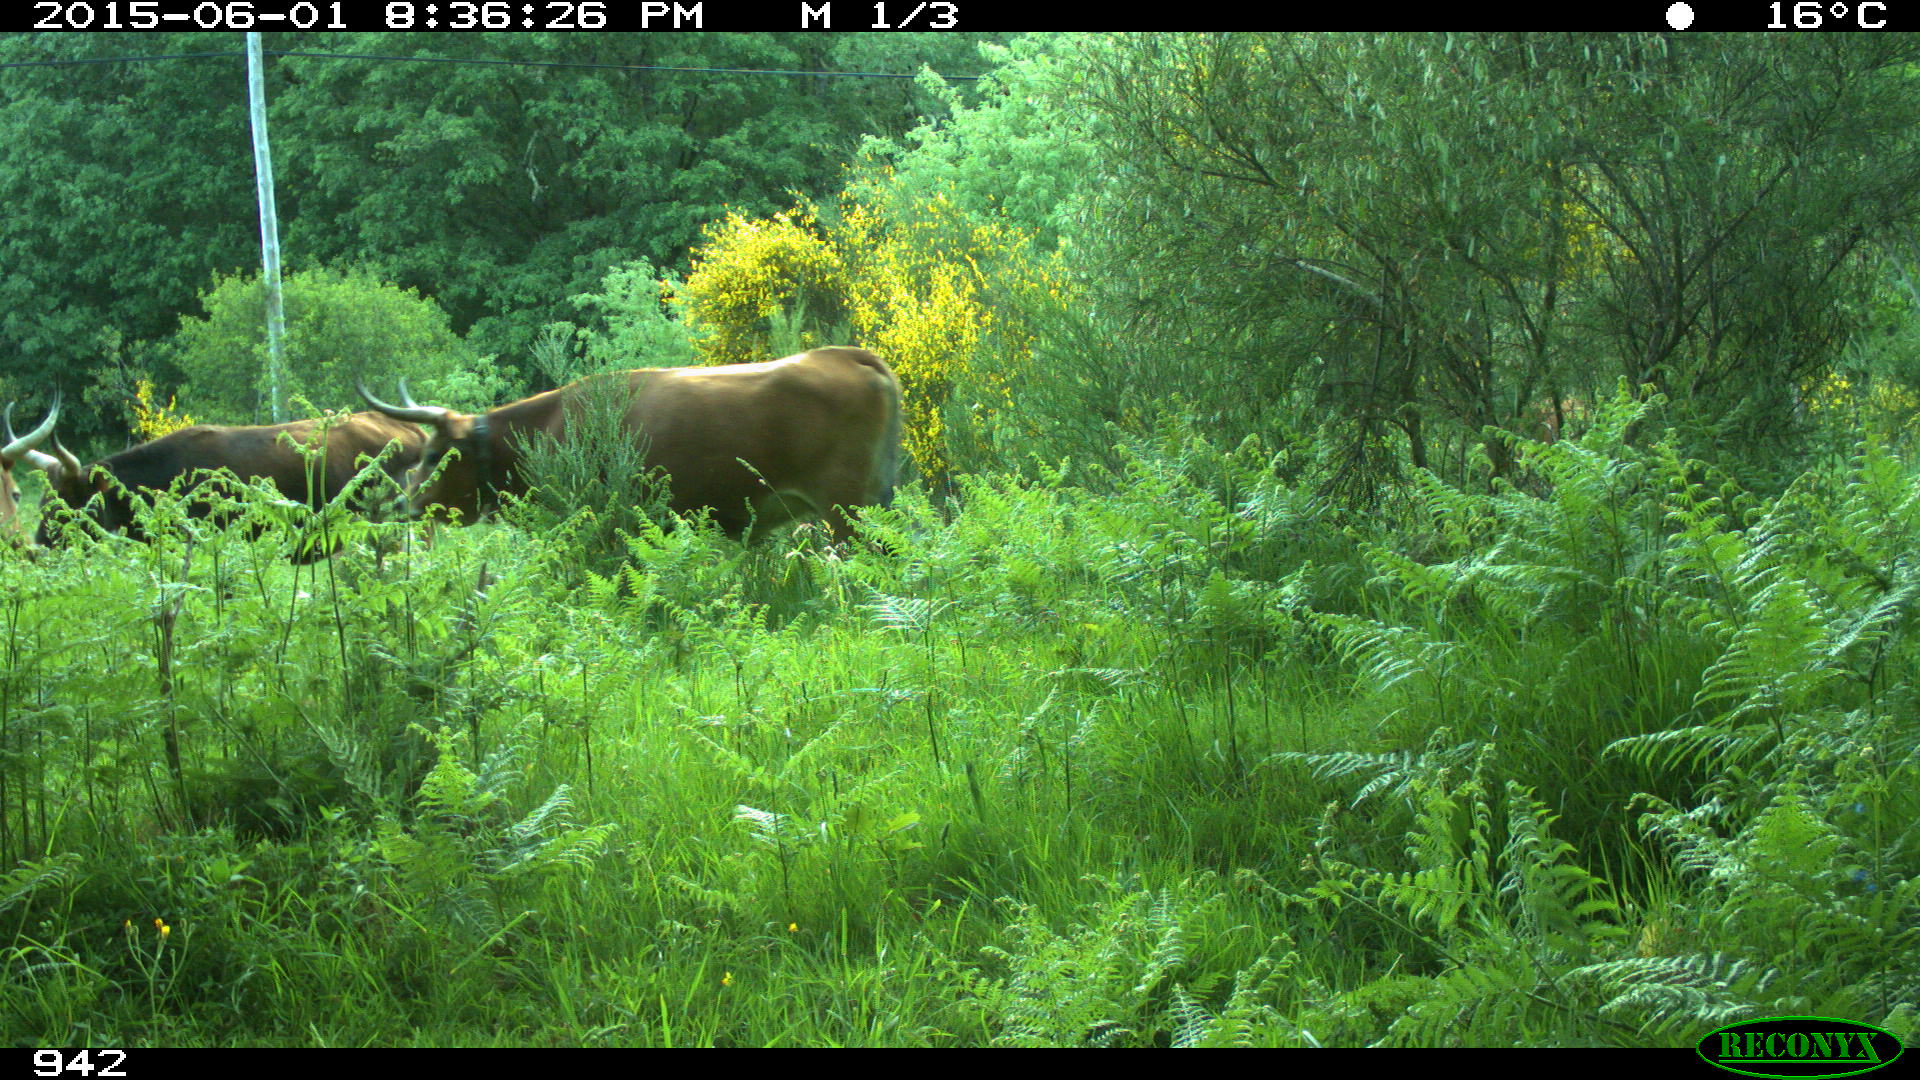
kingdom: Animalia
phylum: Chordata
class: Mammalia
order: Artiodactyla
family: Bovidae
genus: Bos
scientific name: Bos taurus
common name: Domesticated cattle
